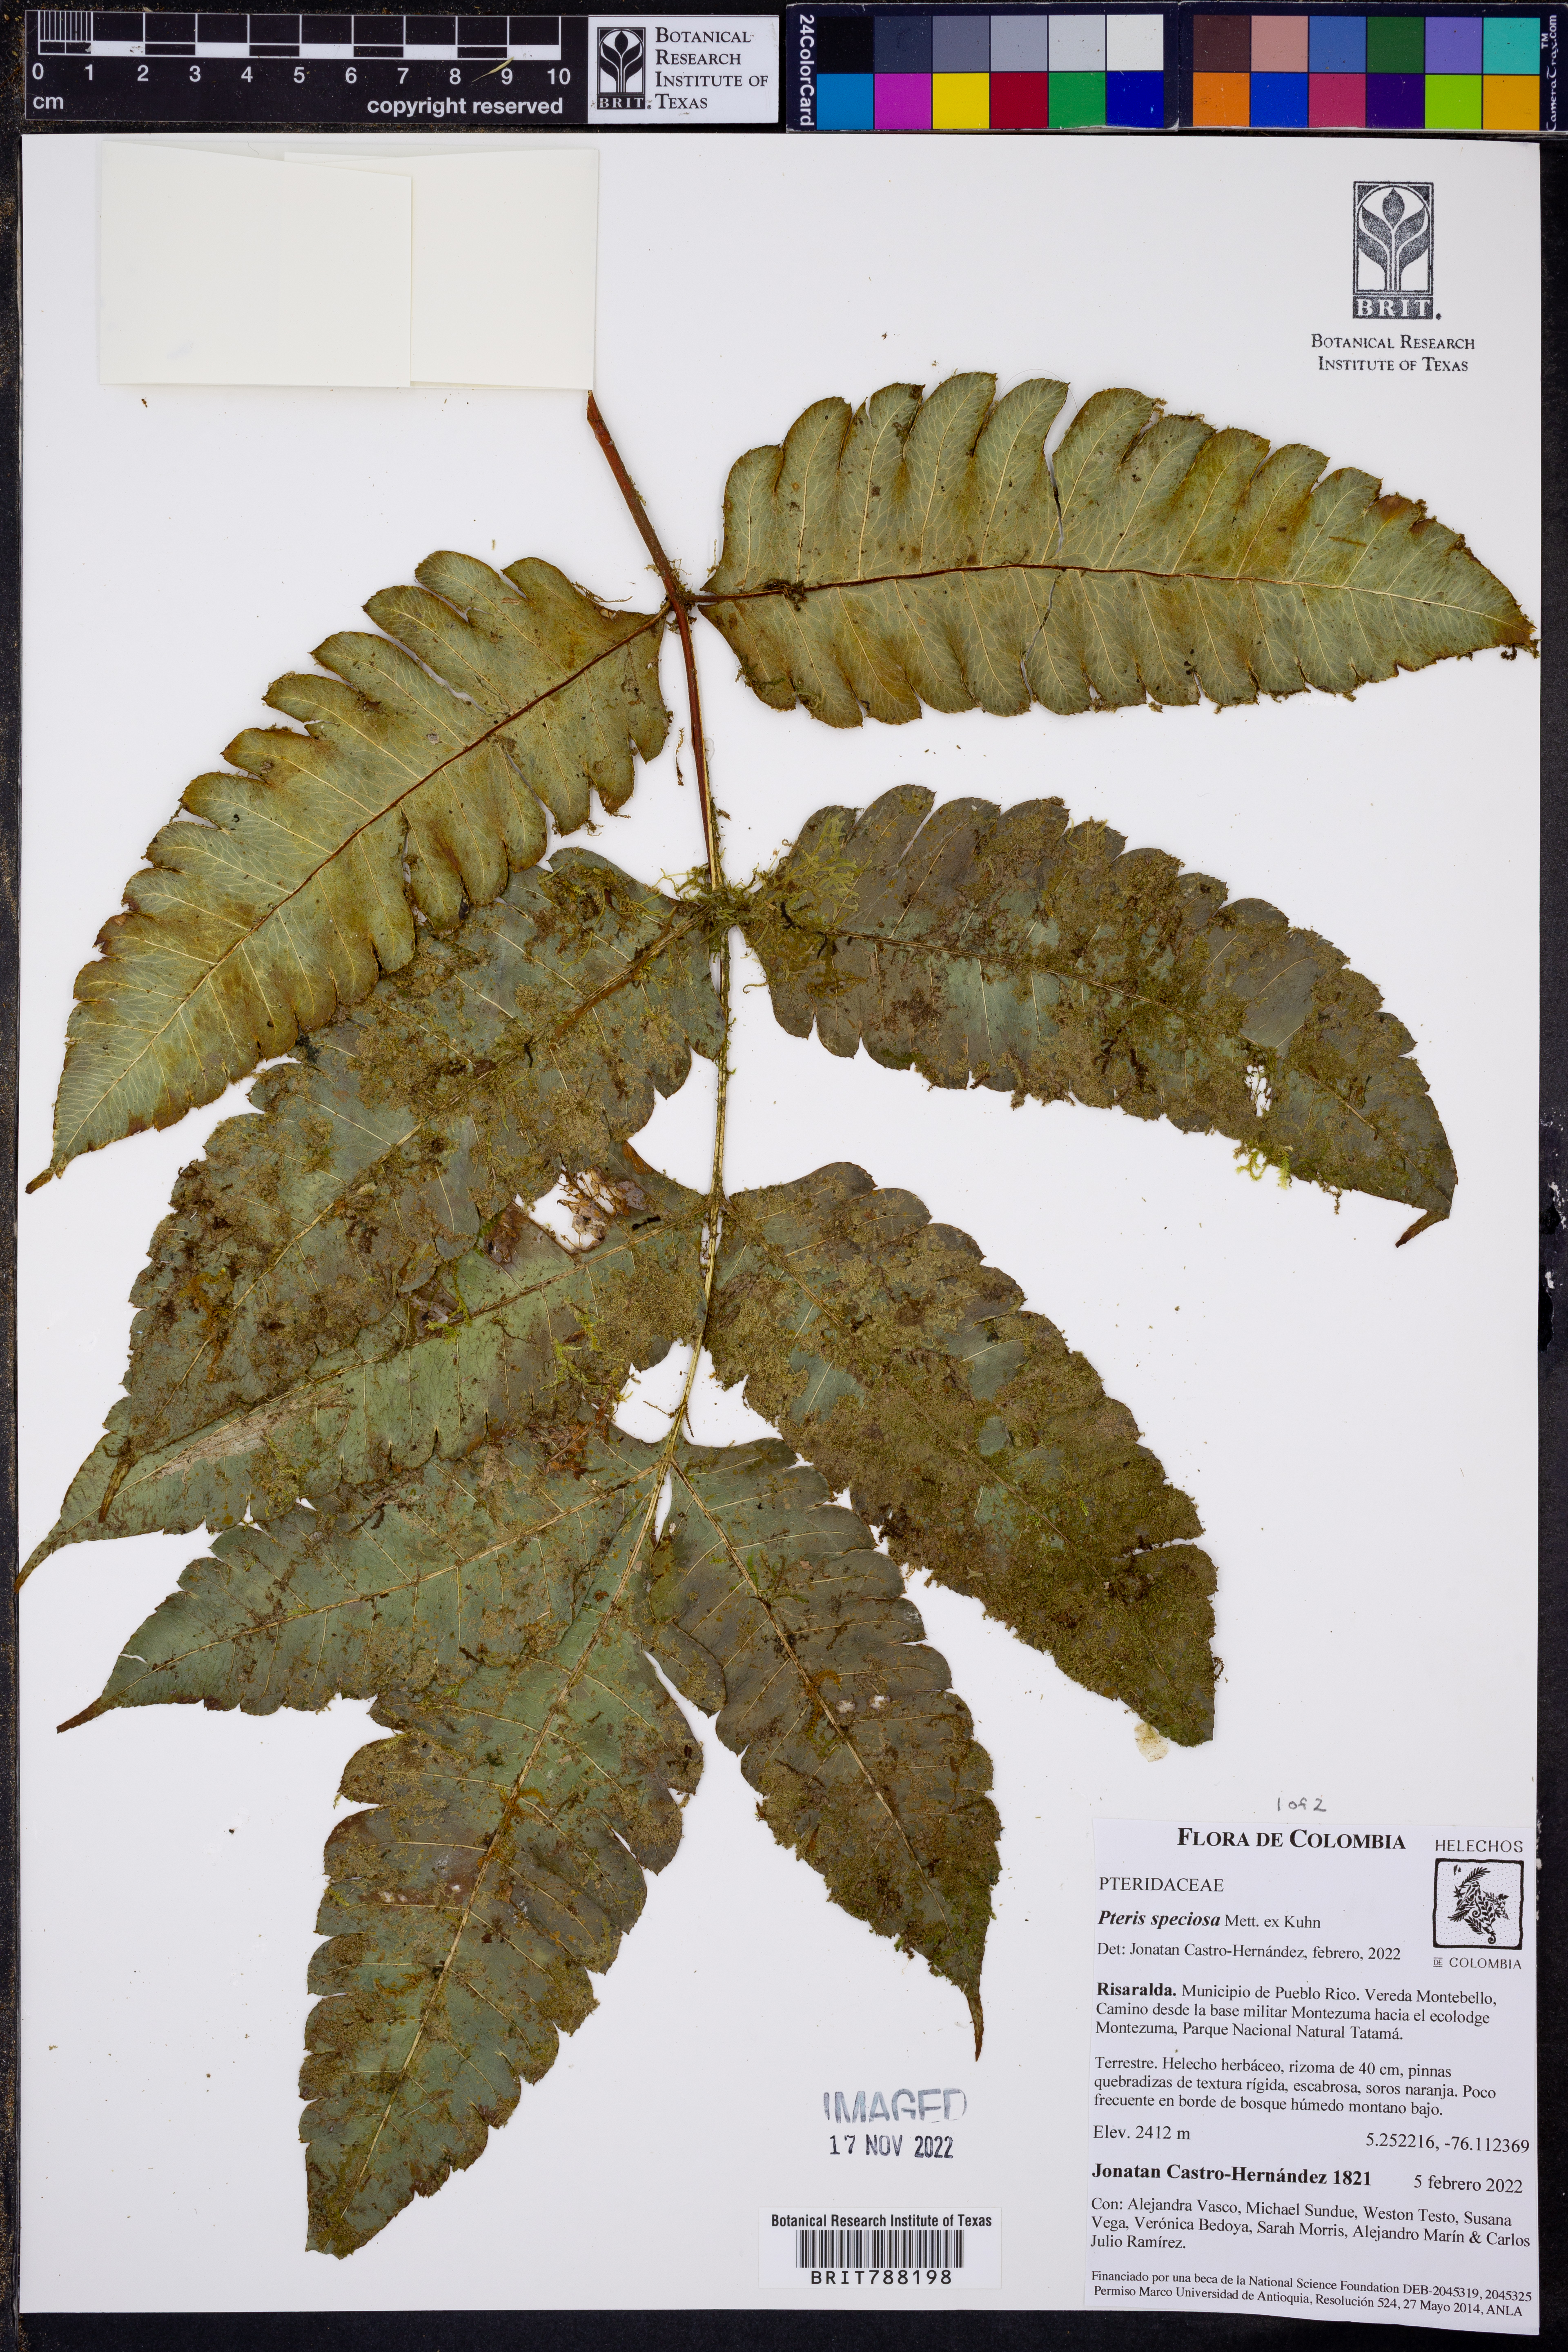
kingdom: Plantae
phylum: Tracheophyta
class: Polypodiopsida
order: Polypodiales
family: Pteridaceae
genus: Pteris
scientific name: Pteris speciosa
